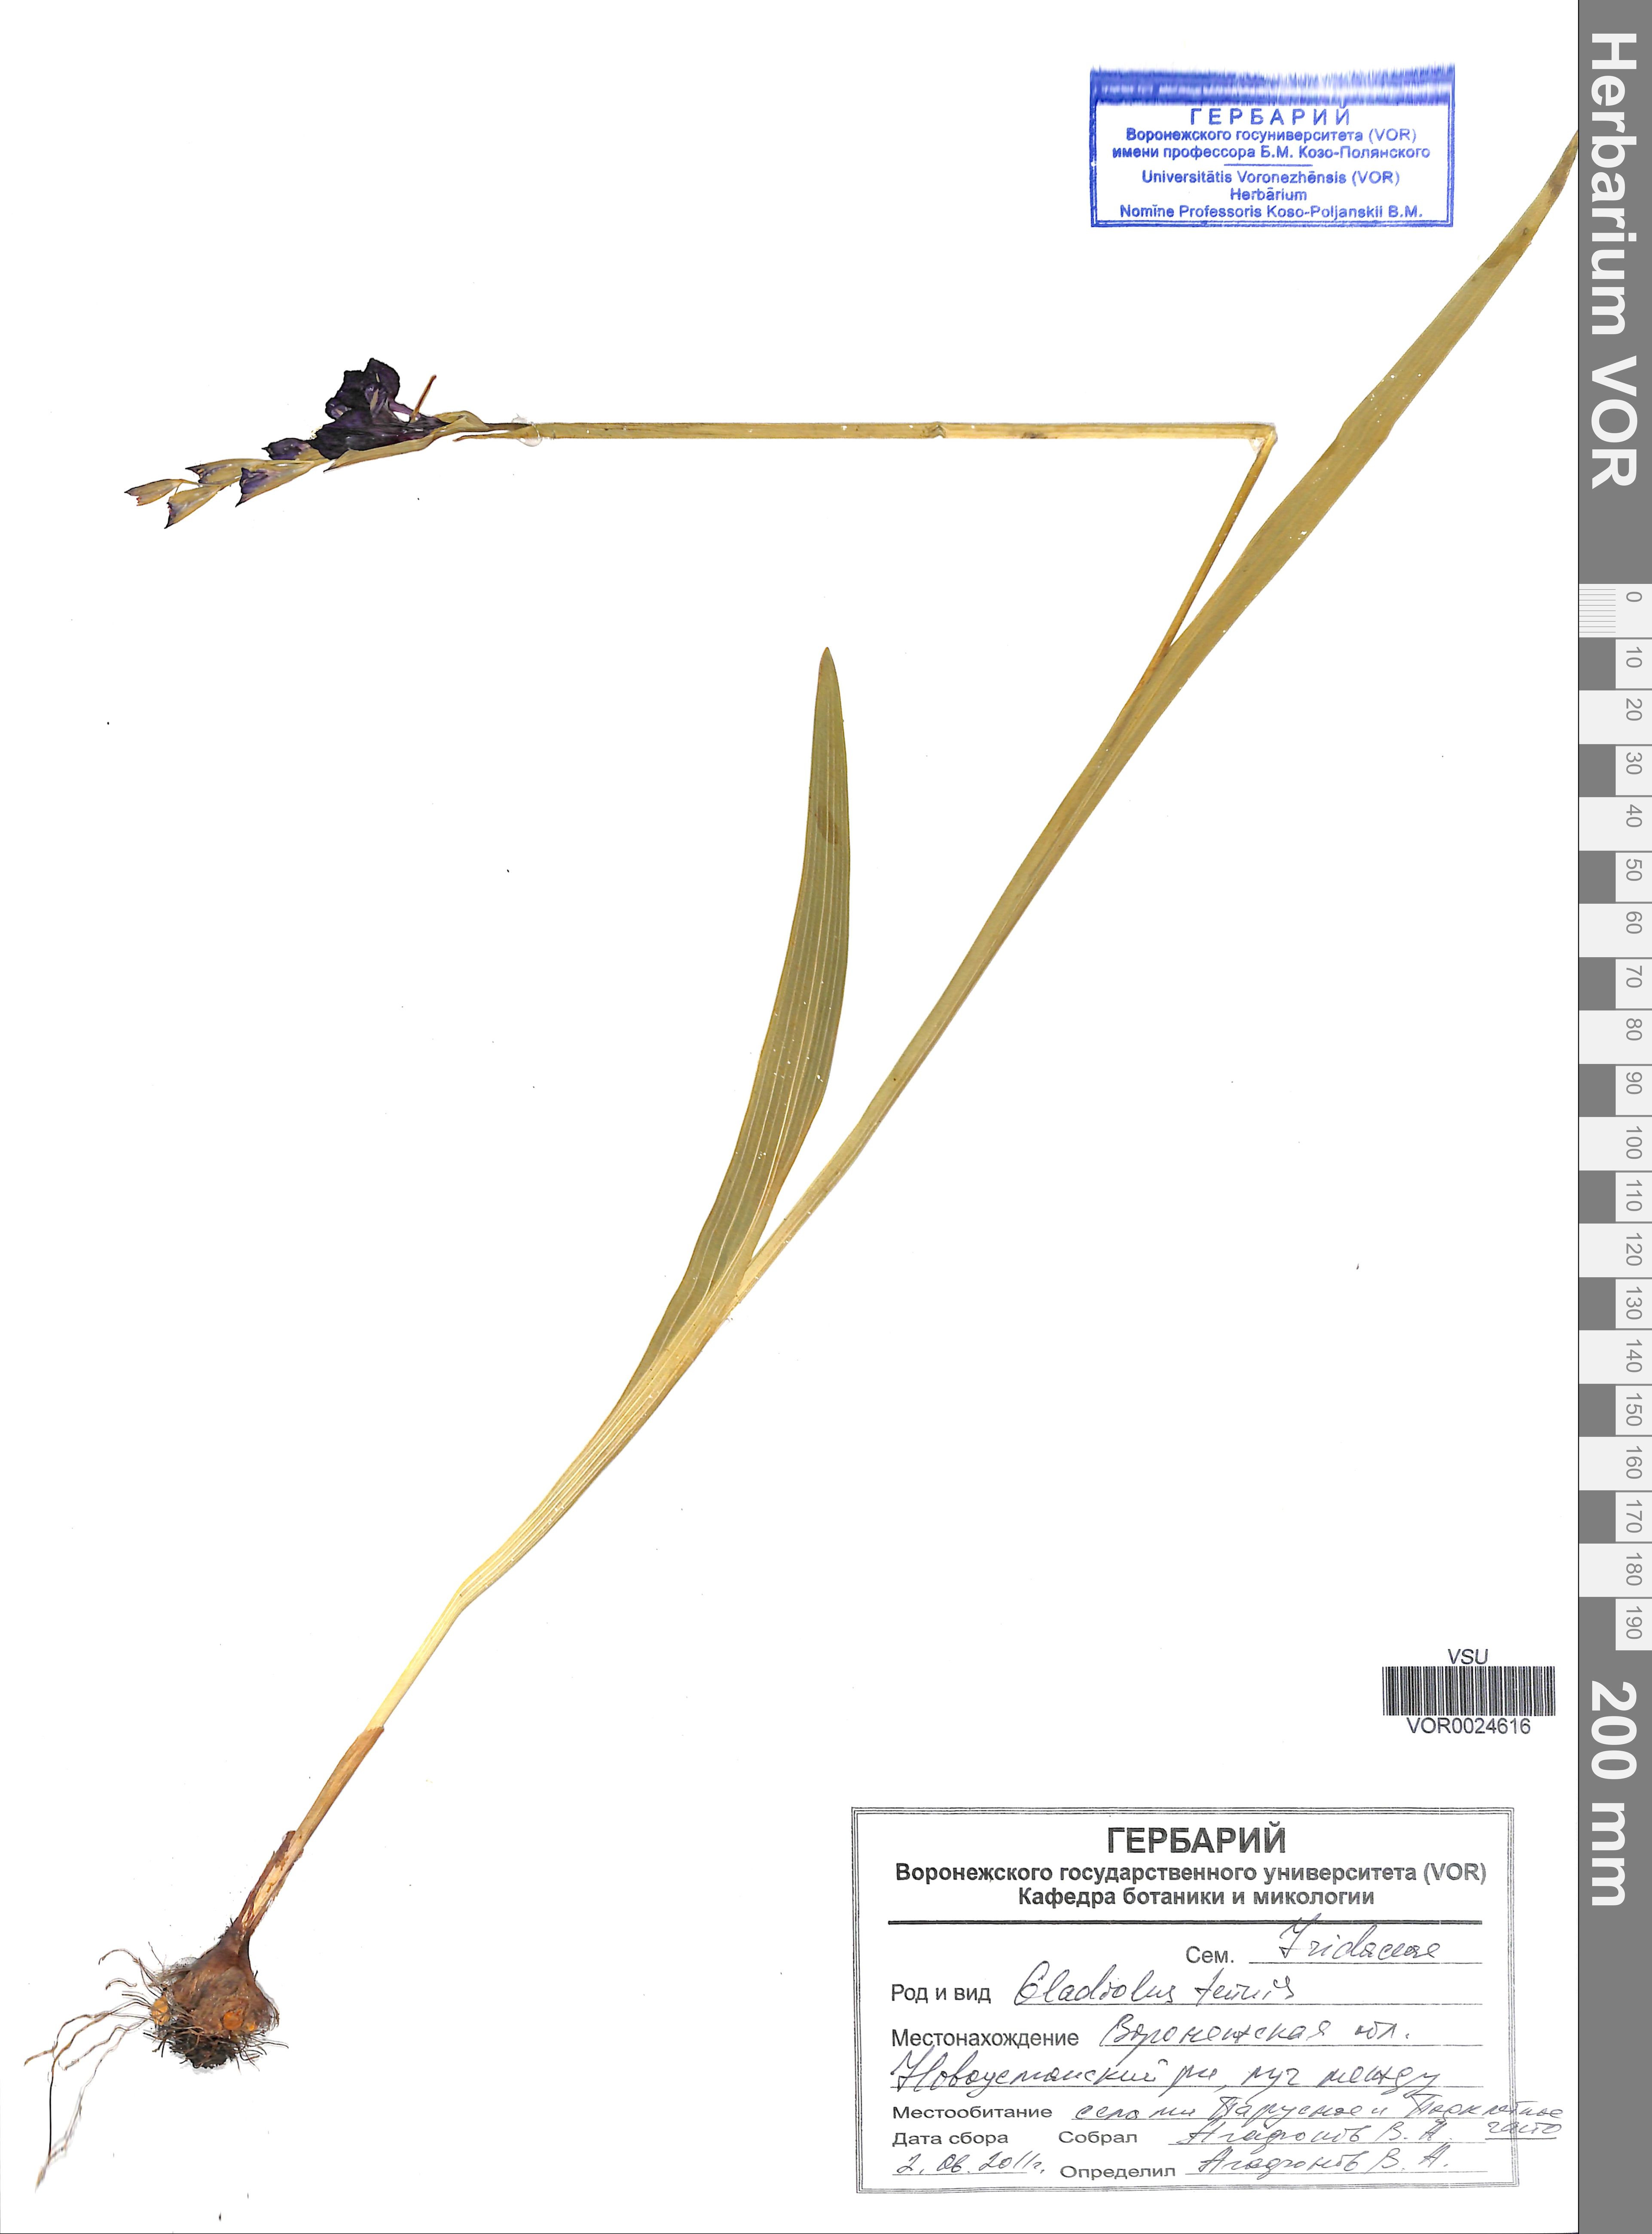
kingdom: Plantae
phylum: Tracheophyta
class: Liliopsida
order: Asparagales
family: Iridaceae
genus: Gladiolus
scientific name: Gladiolus tenuis
